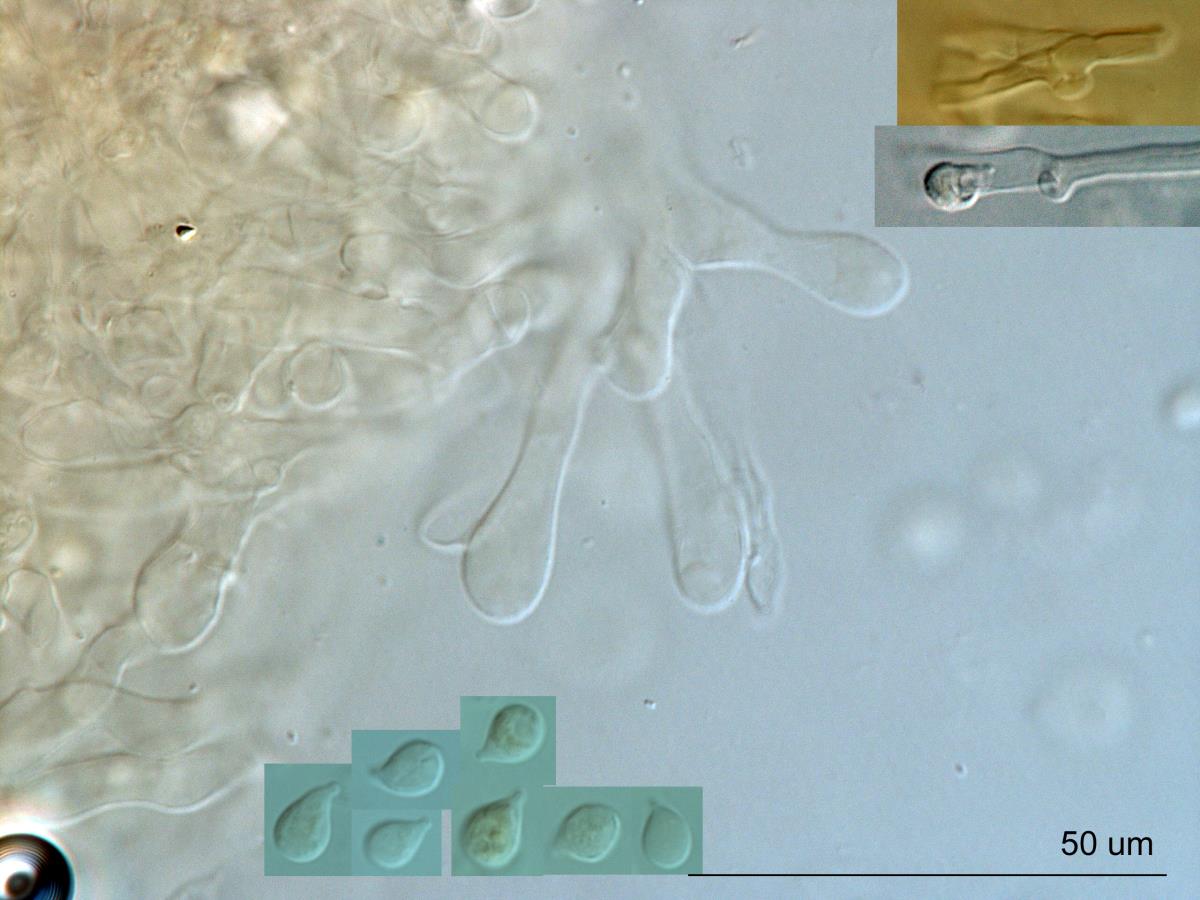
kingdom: Fungi
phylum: Basidiomycota
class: Agaricomycetes
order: Agaricales
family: Tricholomataceae
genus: Rimbachia
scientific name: Rimbachia bryophila
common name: Veined mossear
